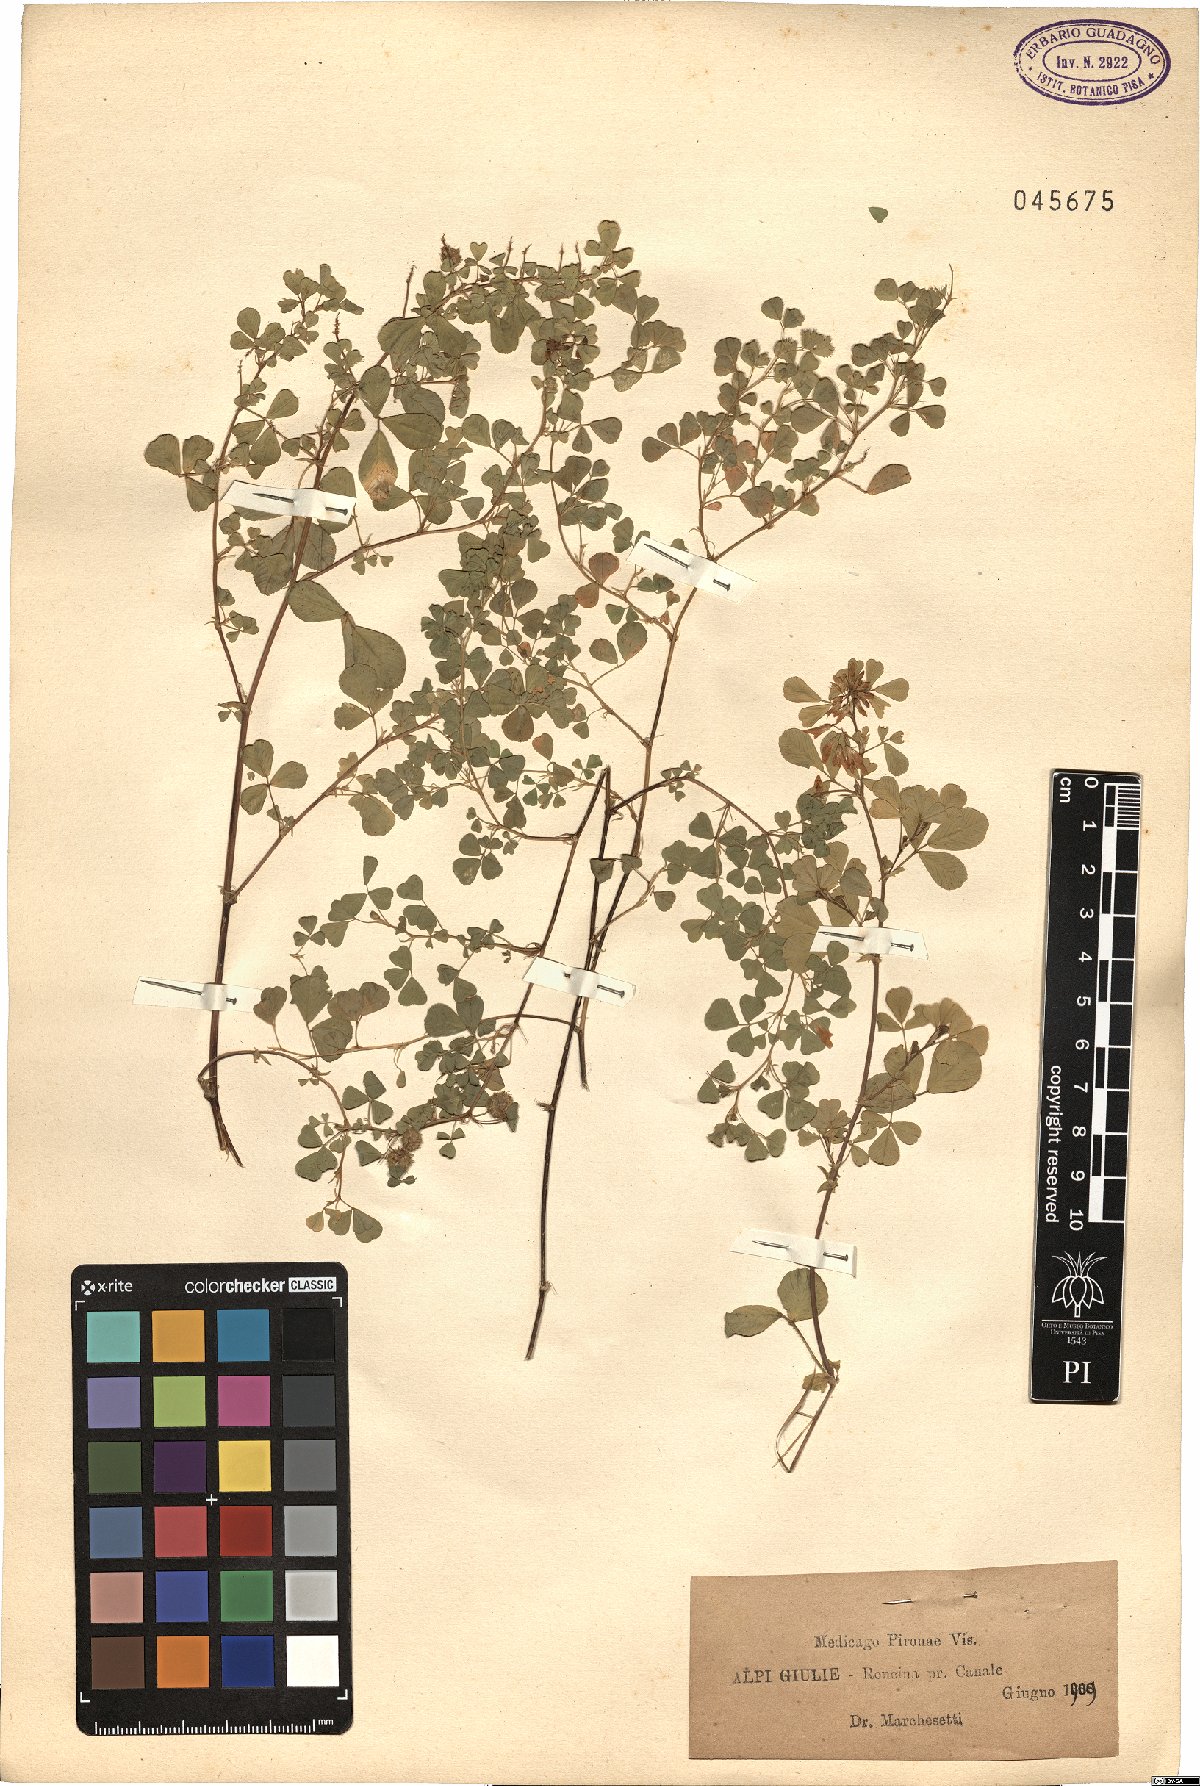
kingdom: Plantae
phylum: Tracheophyta
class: Magnoliopsida
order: Fabales
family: Fabaceae
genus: Medicago
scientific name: Medicago pironae
